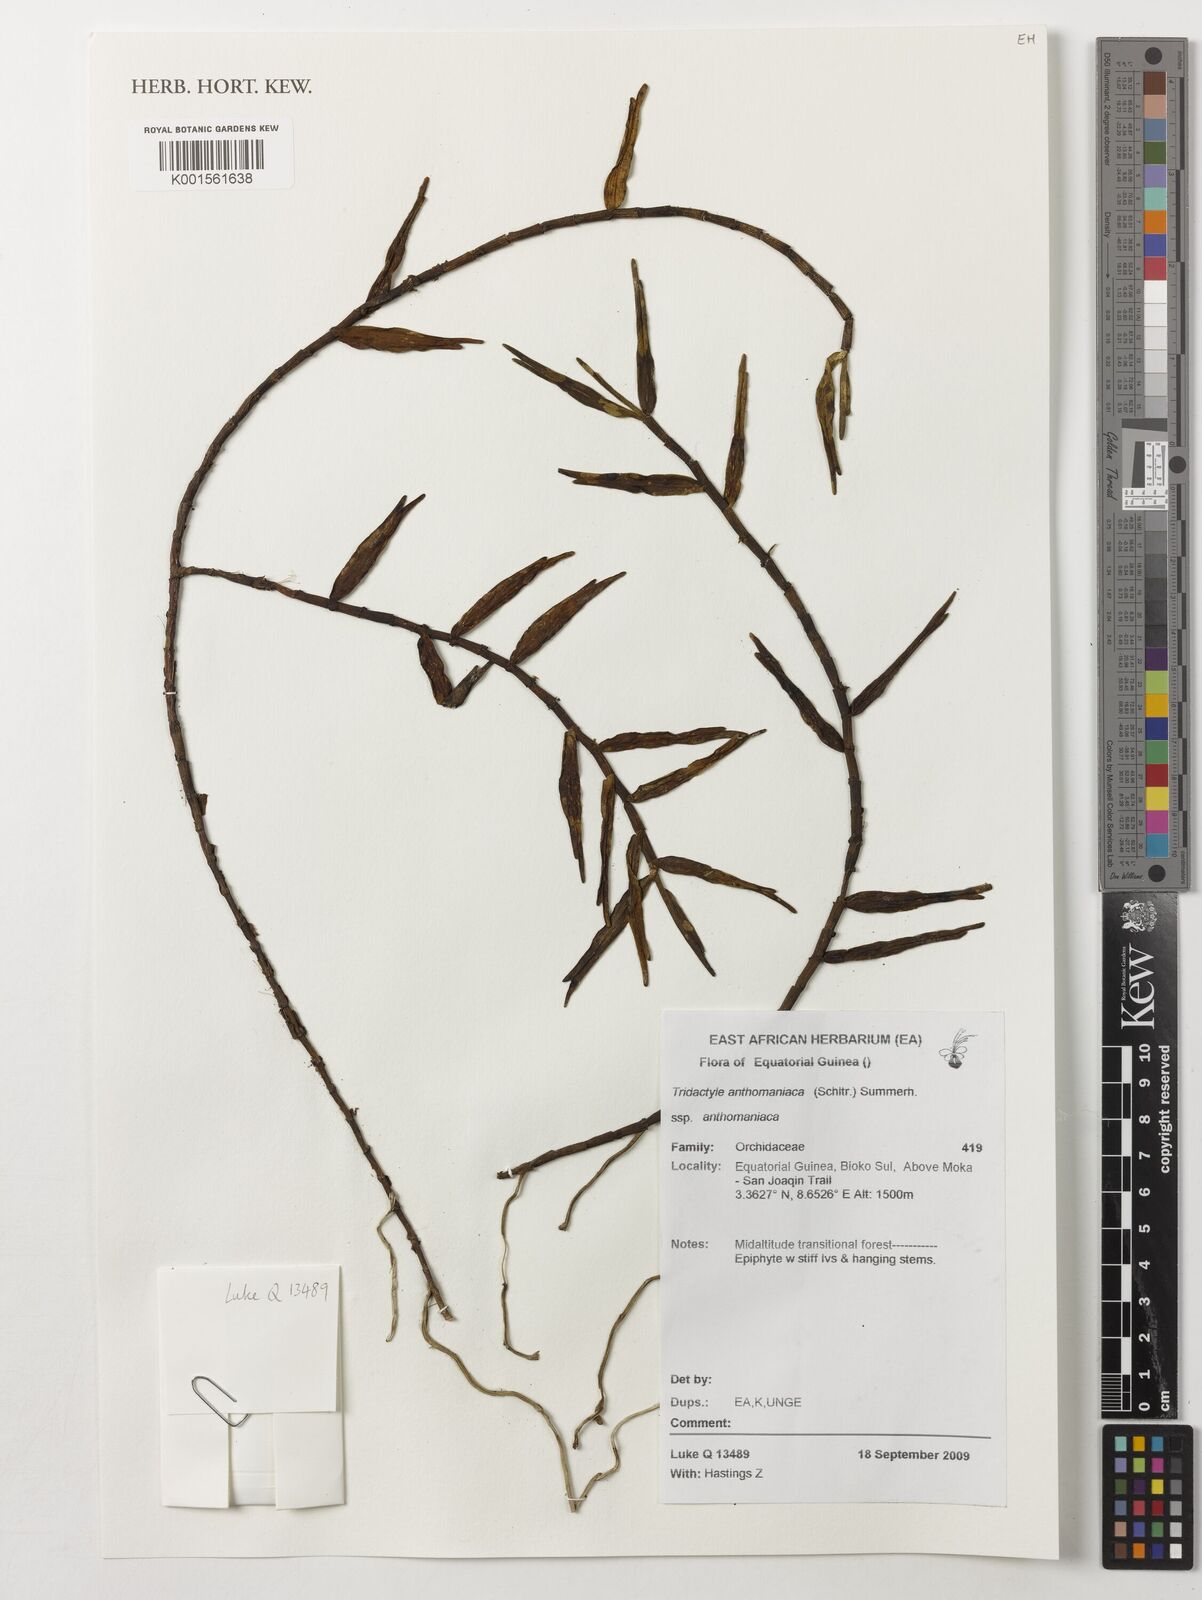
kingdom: Plantae
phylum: Tracheophyta
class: Liliopsida
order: Asparagales
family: Orchidaceae
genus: Tridactyle
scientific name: Tridactyle anthomaniaca
